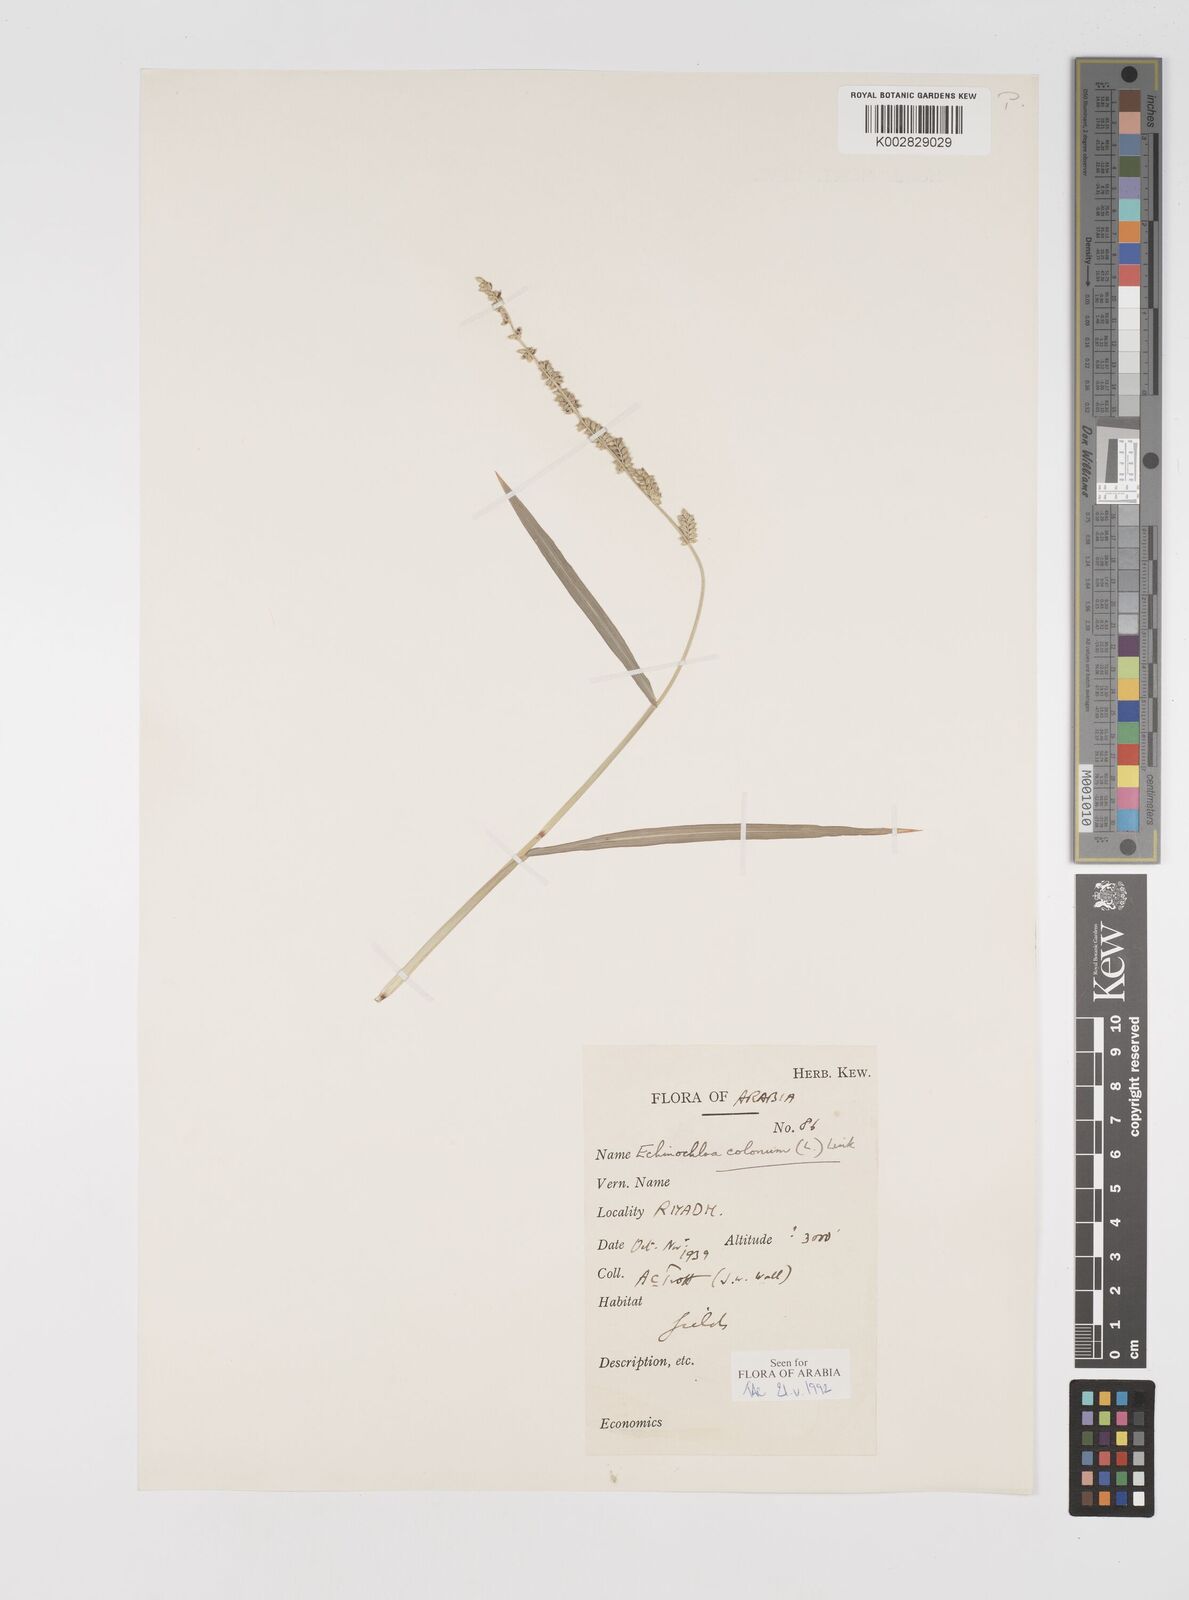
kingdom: Plantae
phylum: Tracheophyta
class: Liliopsida
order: Poales
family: Poaceae
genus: Echinochloa
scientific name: Echinochloa colonum
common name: Jungle rice
